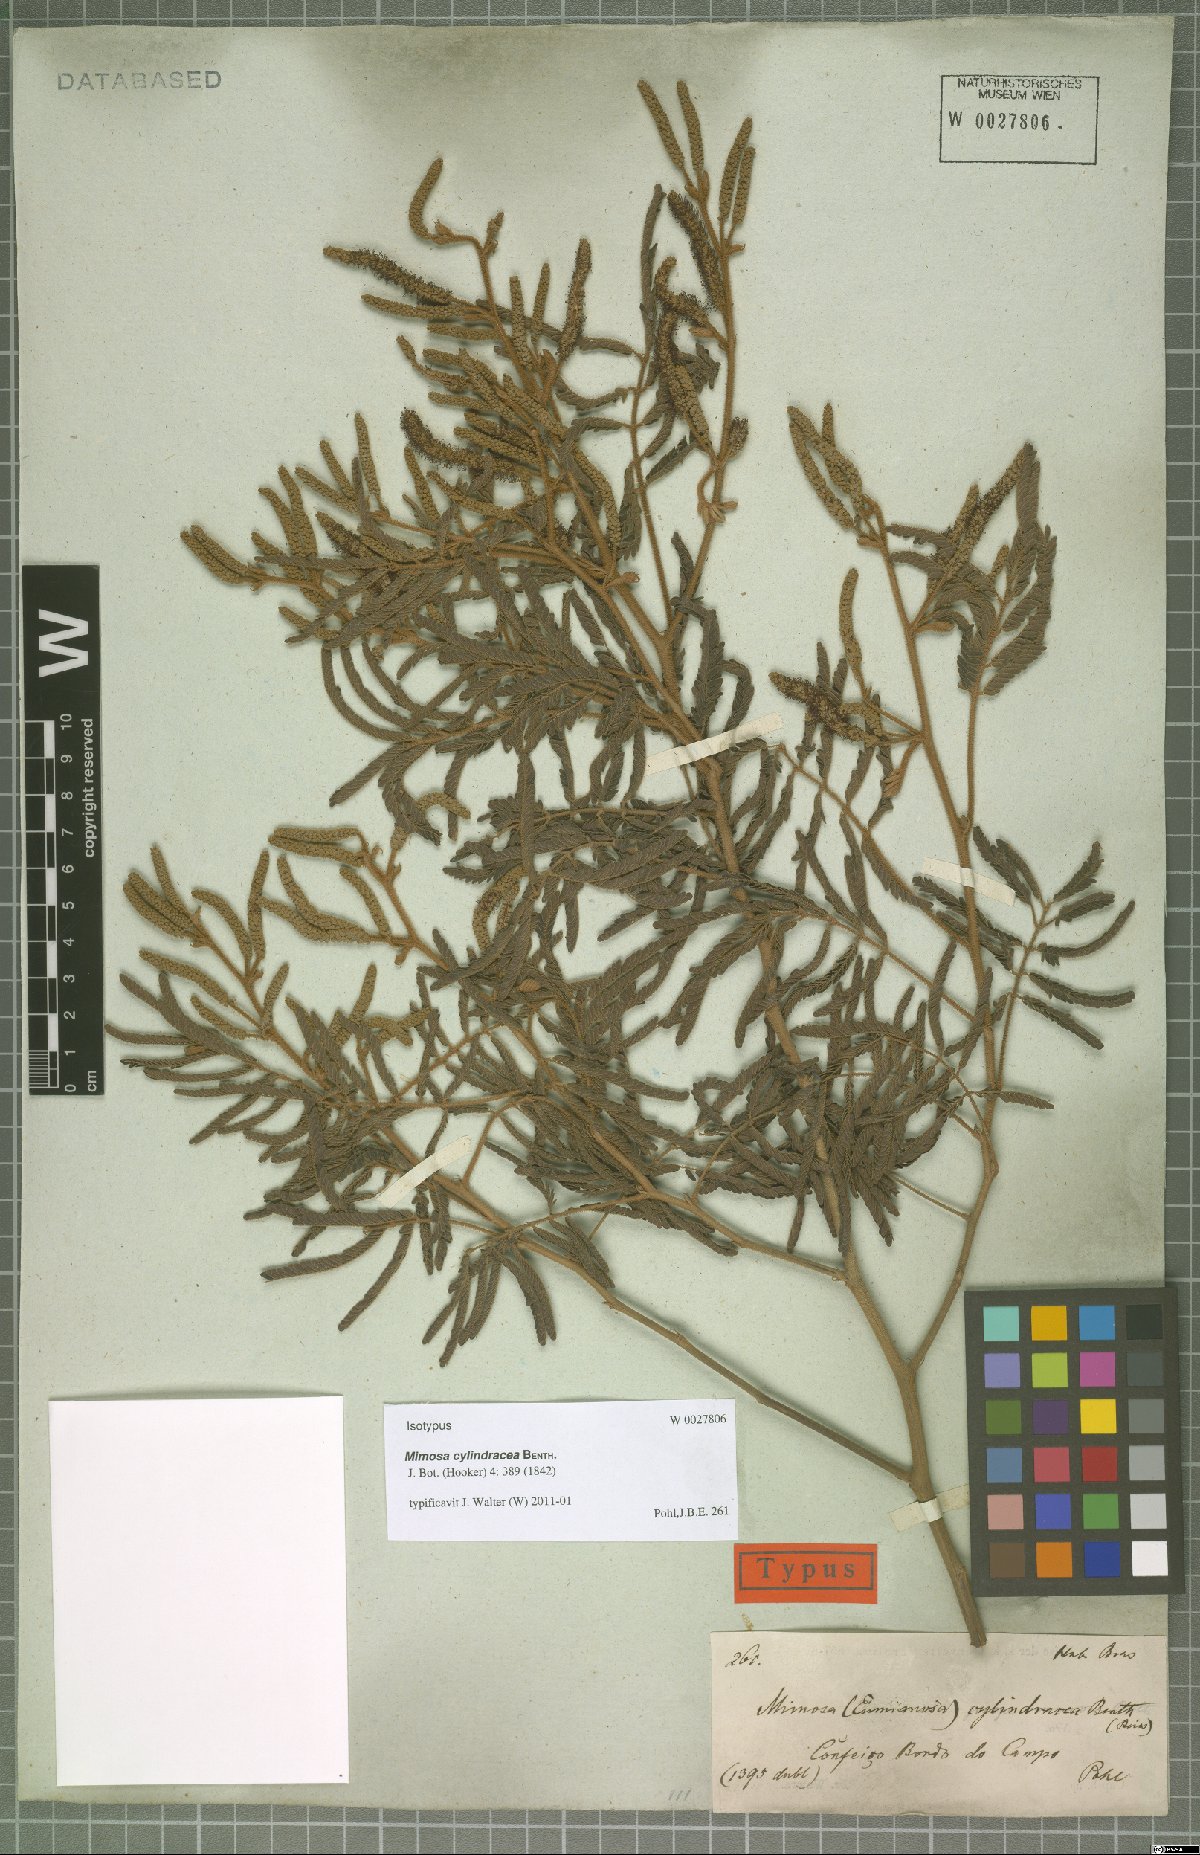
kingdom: Plantae
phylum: Tracheophyta
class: Magnoliopsida
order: Fabales
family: Fabaceae
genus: Mimosa
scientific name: Mimosa cylindracea
